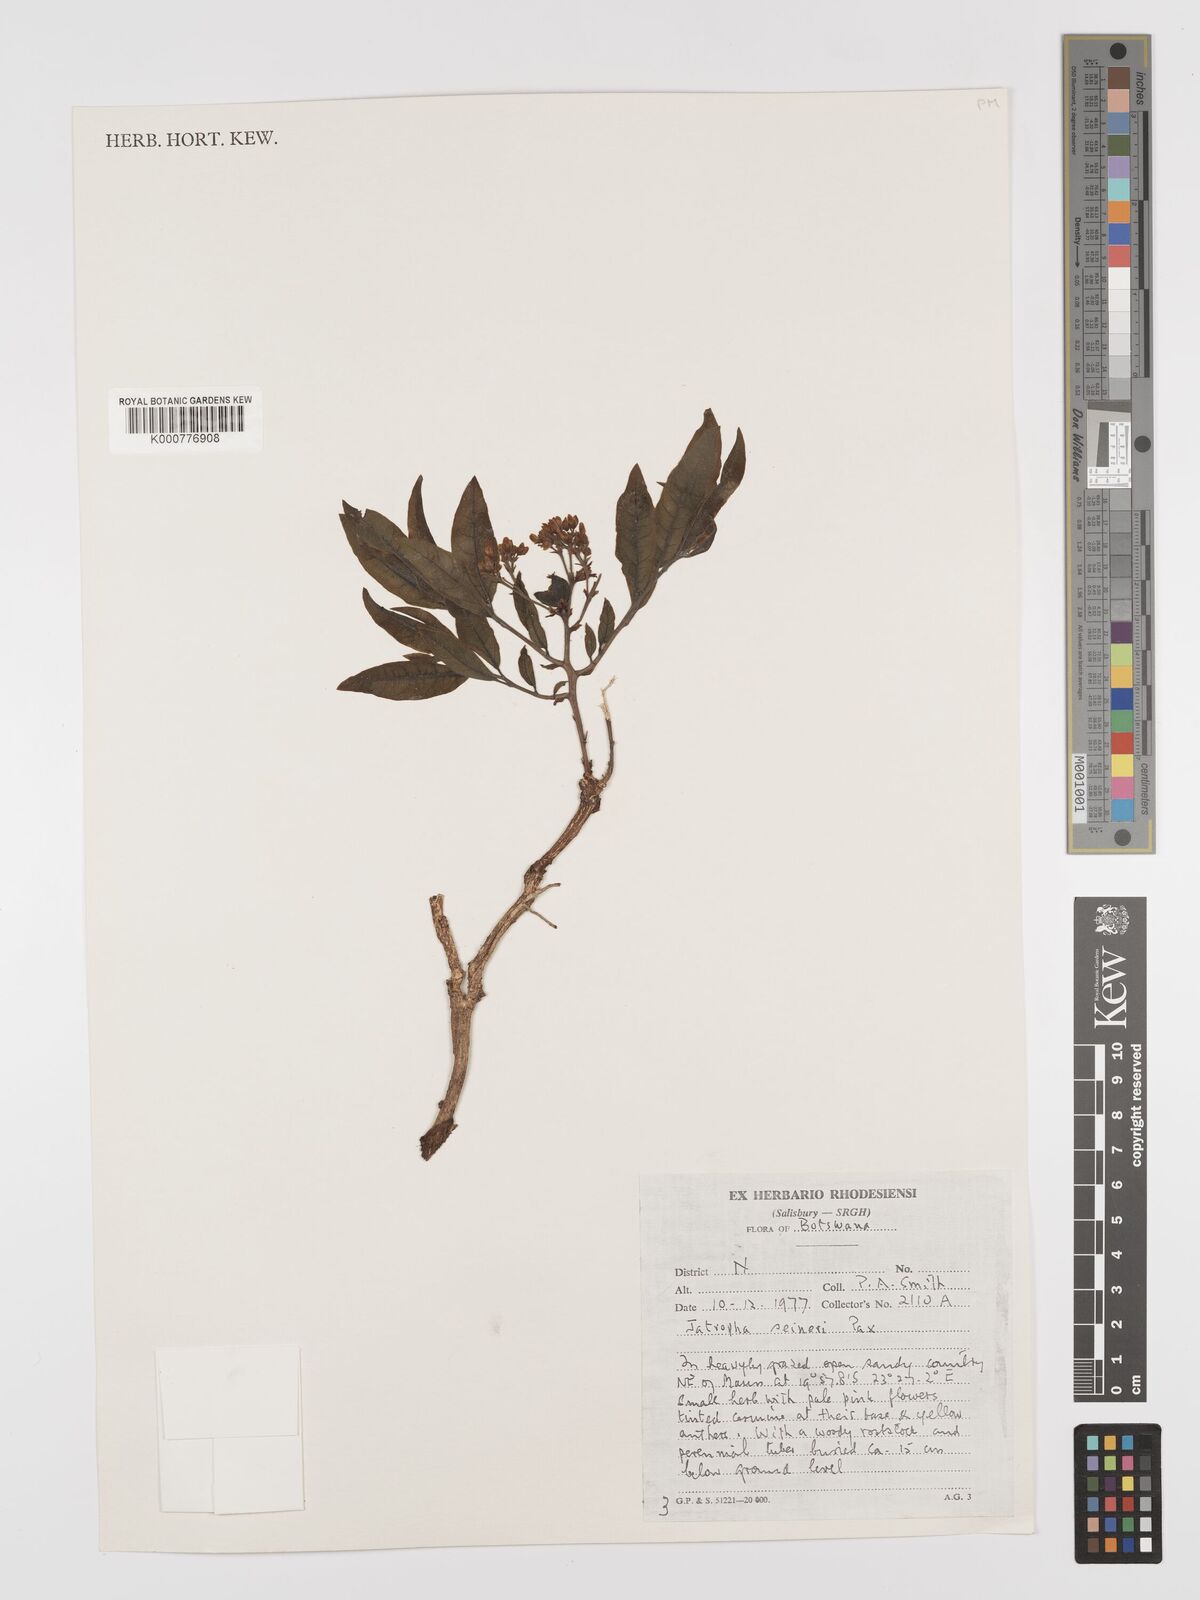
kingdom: Plantae
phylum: Tracheophyta
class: Magnoliopsida
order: Malpighiales
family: Euphorbiaceae
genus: Jatropha
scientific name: Jatropha seineri
